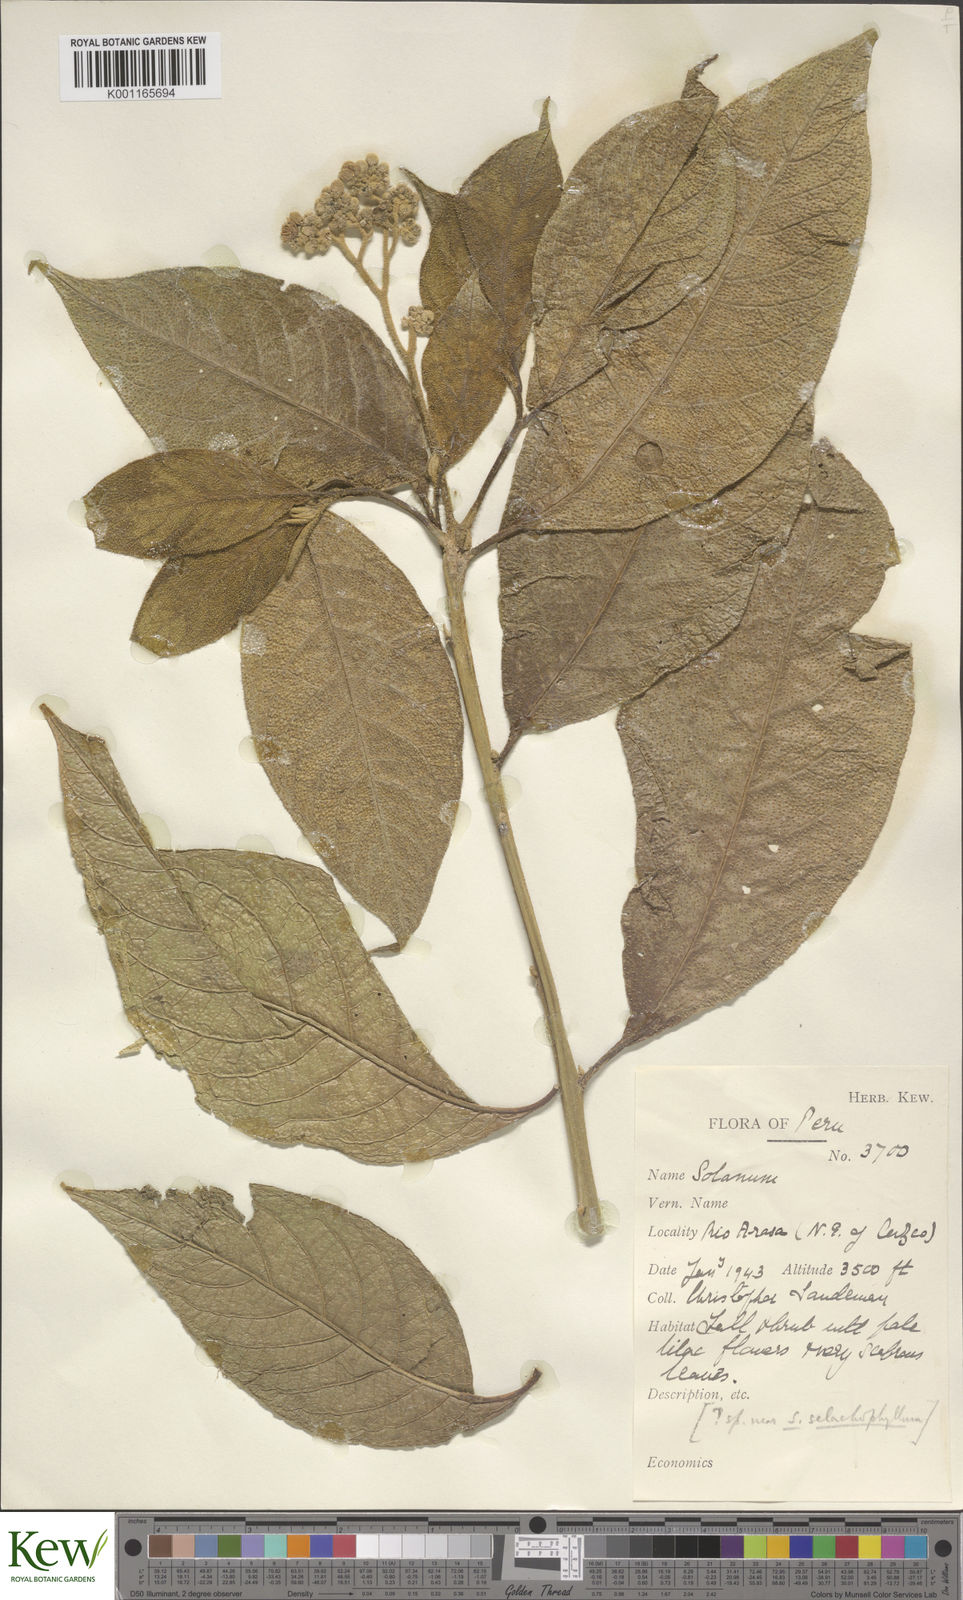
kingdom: Plantae
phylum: Tracheophyta
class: Magnoliopsida
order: Solanales
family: Solanaceae
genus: Solanum
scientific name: Solanum selachophyllum
